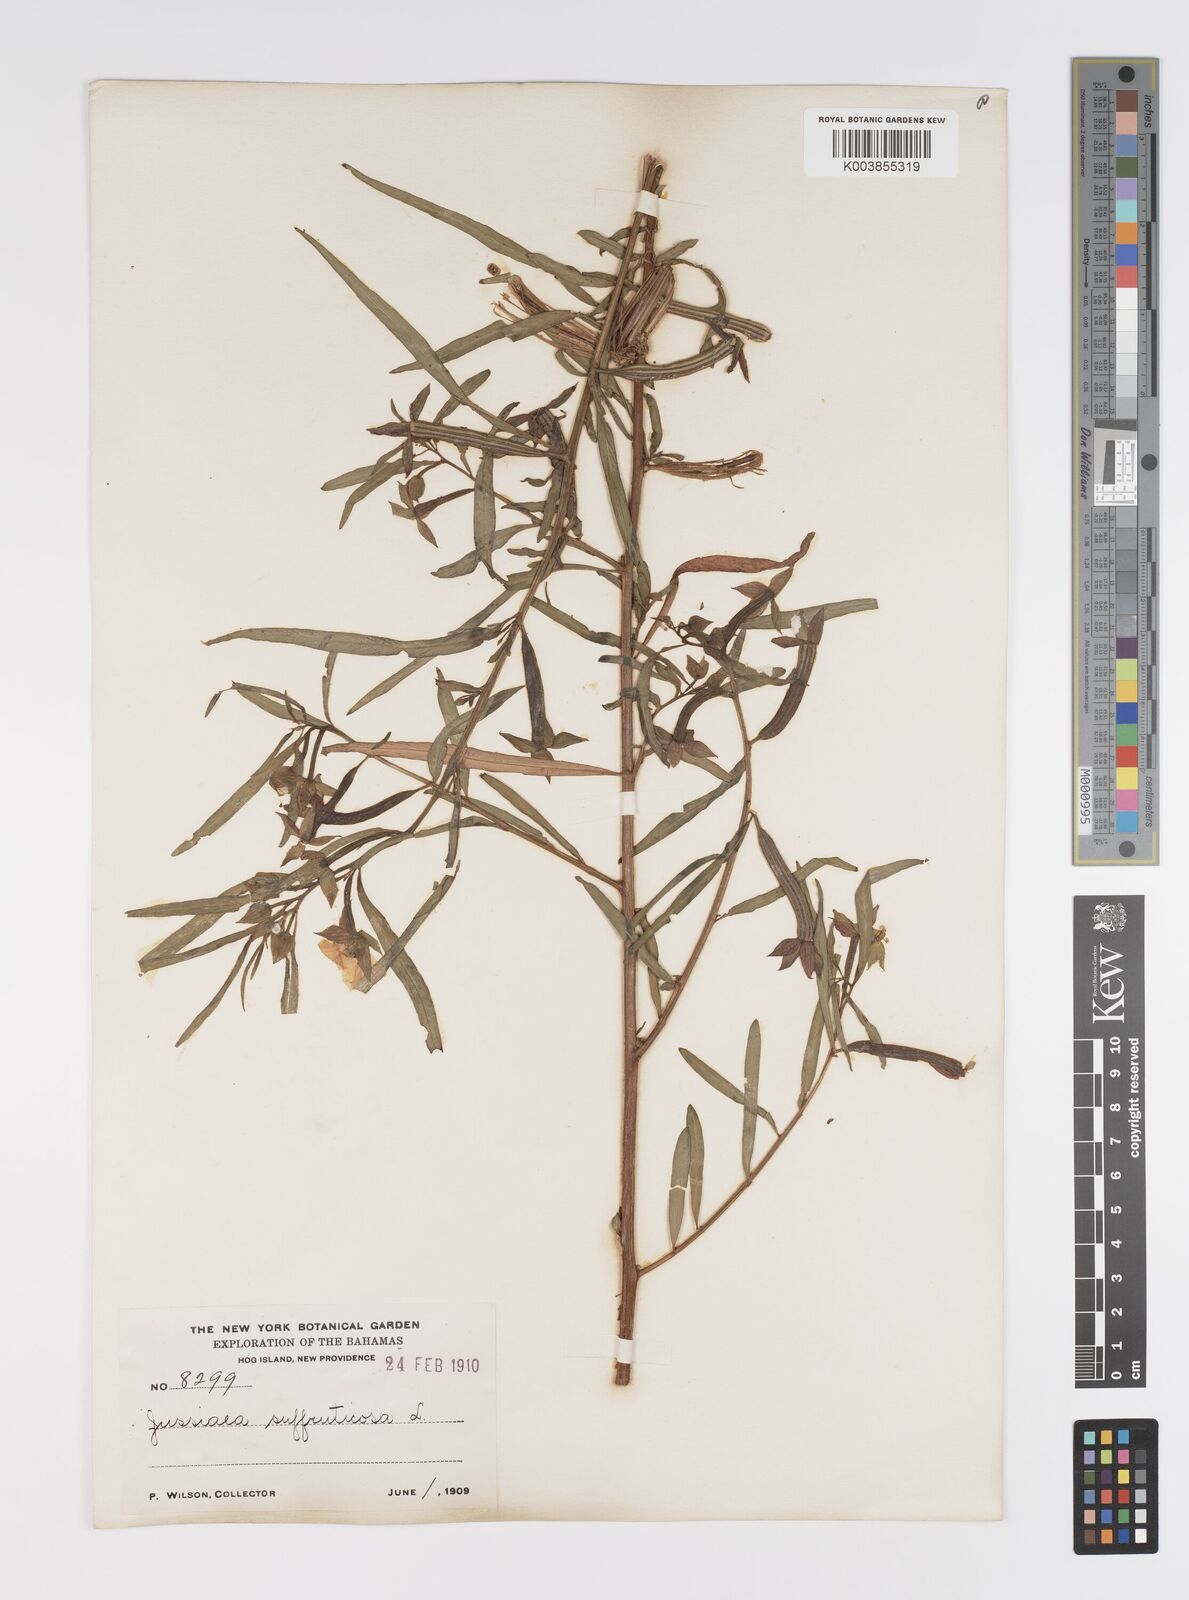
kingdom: Plantae
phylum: Tracheophyta
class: Magnoliopsida
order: Myrtales
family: Onagraceae
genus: Ludwigia
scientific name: Ludwigia octovalvis
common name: Water-primrose
